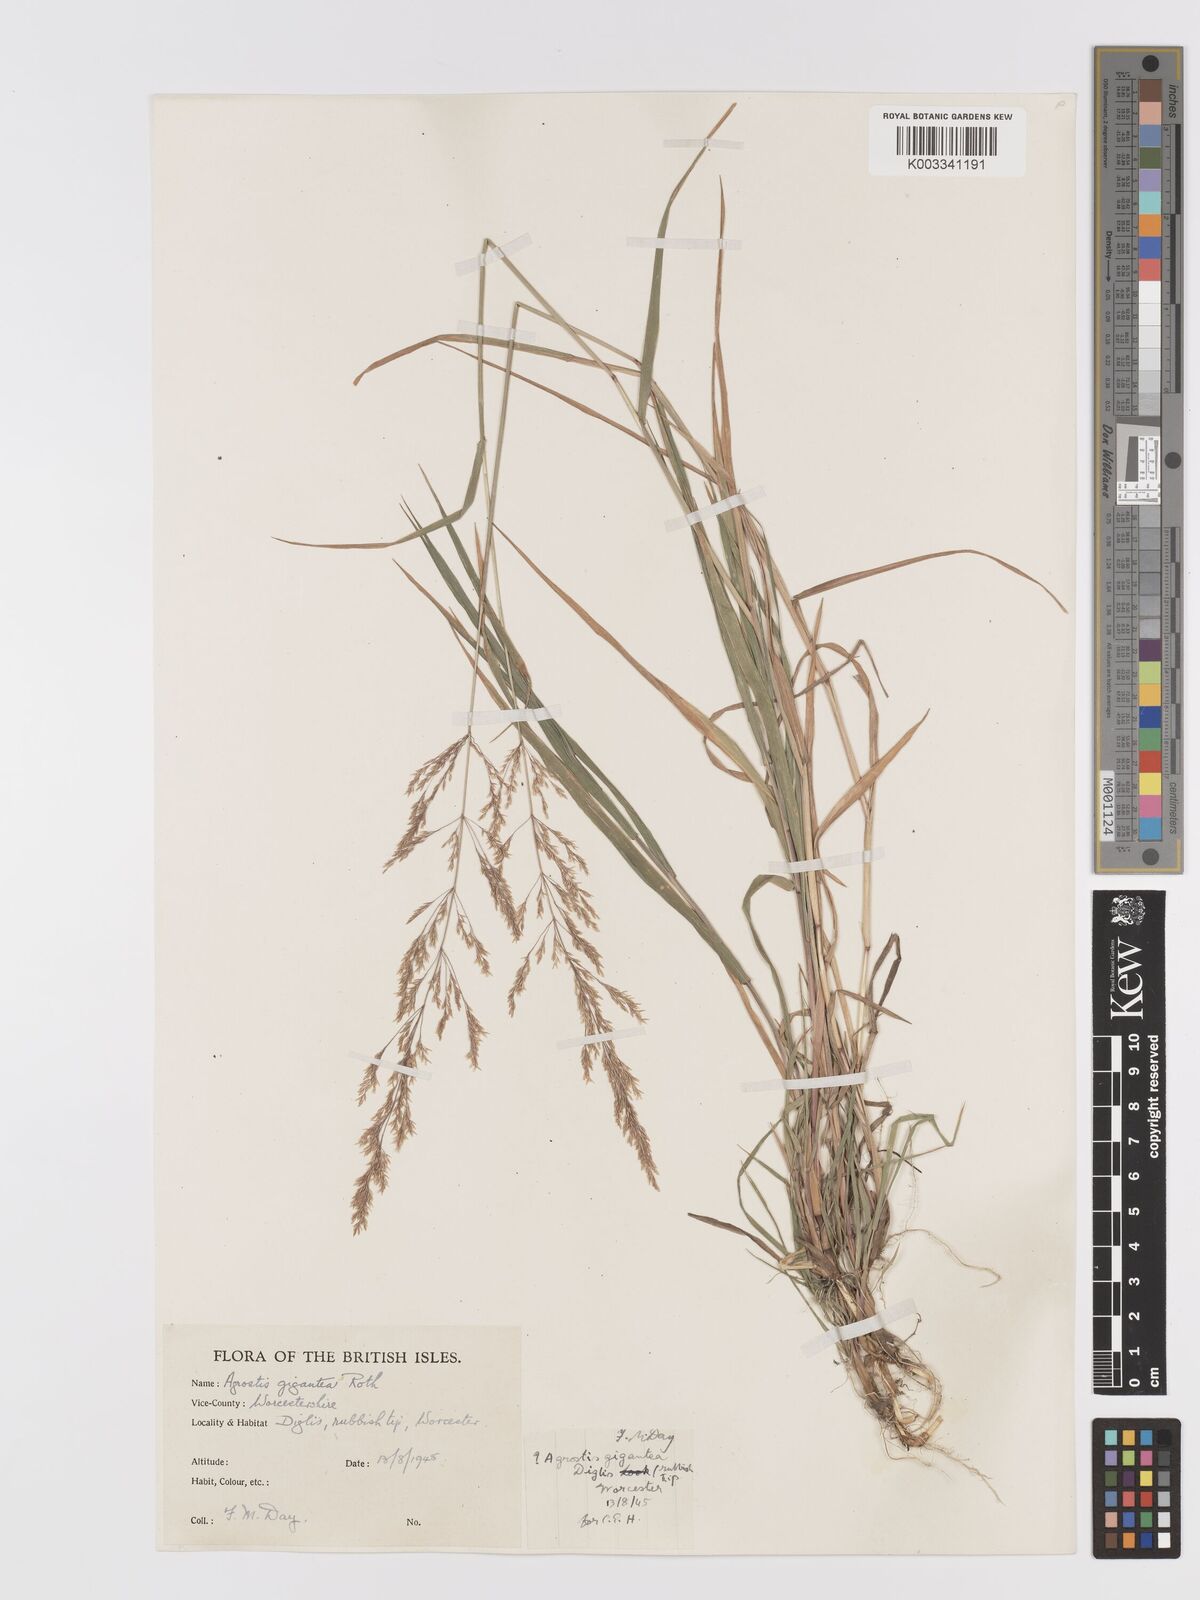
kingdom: Plantae
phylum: Tracheophyta
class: Liliopsida
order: Poales
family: Poaceae
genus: Agrostis
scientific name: Agrostis gigantea
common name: Black bent
